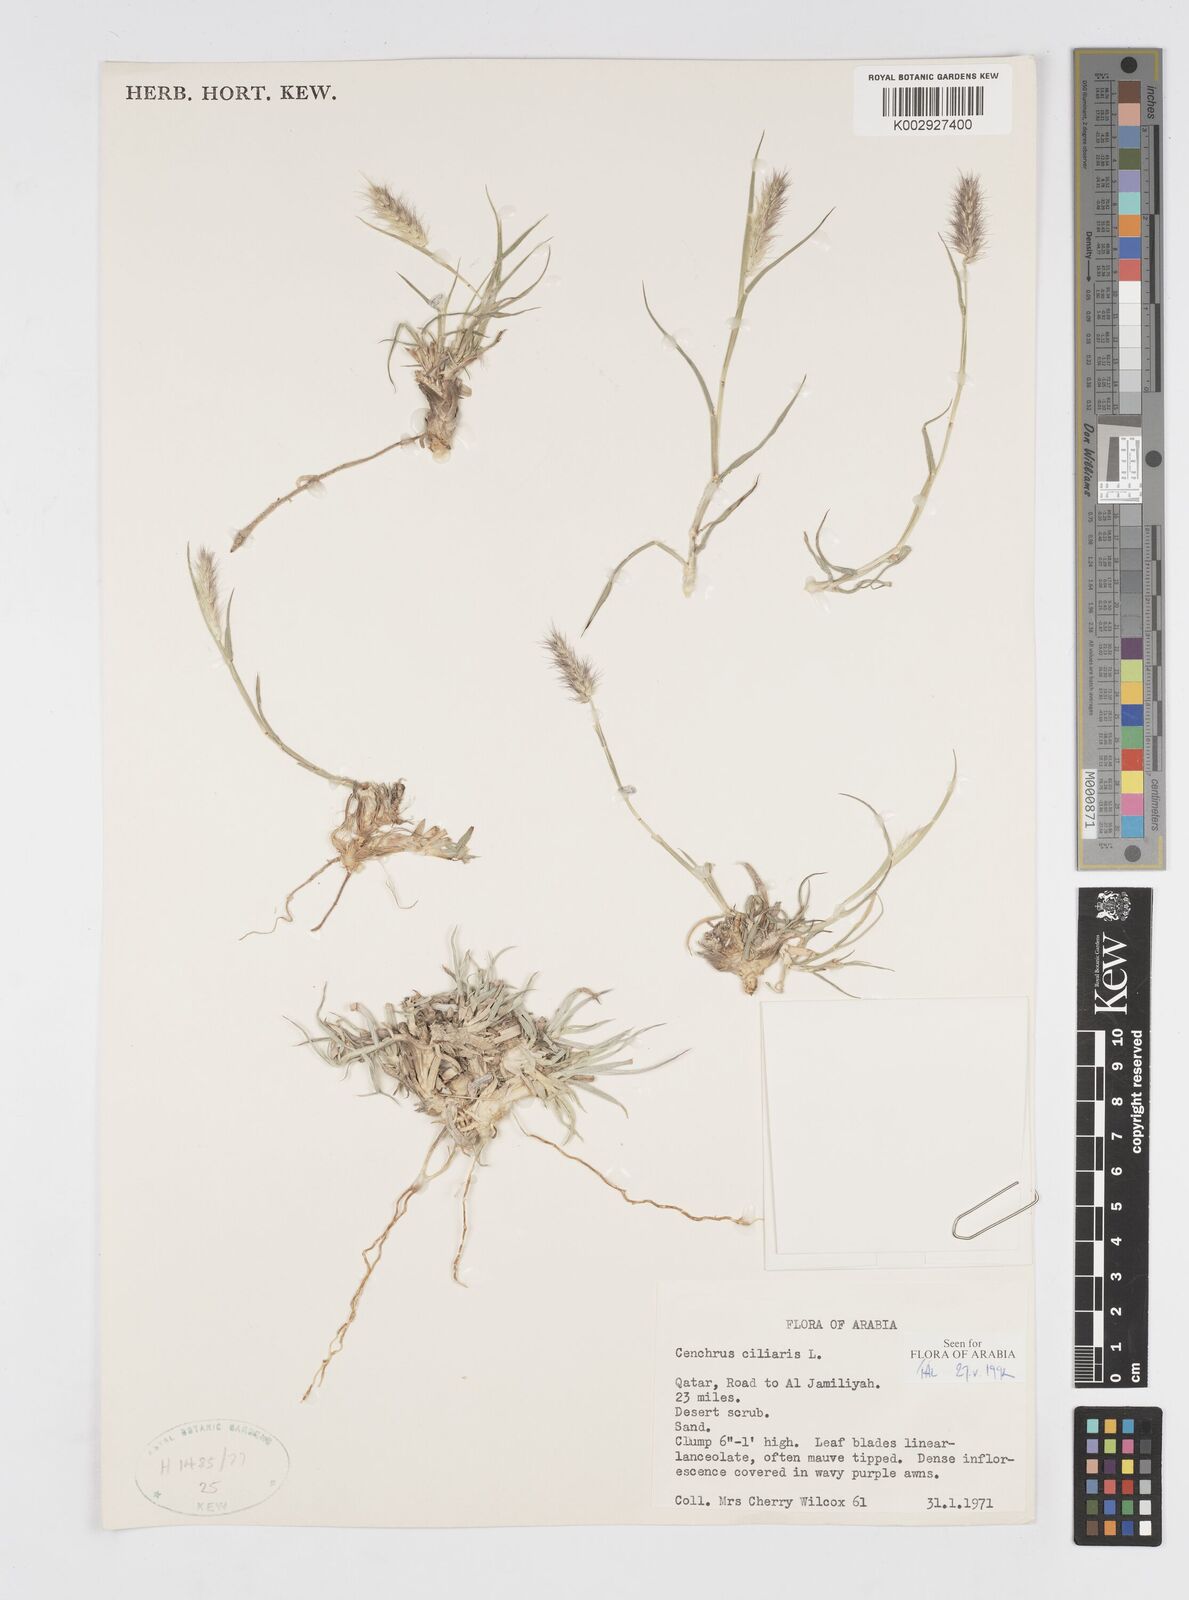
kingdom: Plantae
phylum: Tracheophyta
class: Liliopsida
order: Poales
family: Poaceae
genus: Cenchrus
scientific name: Cenchrus ciliaris
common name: Buffelgrass
